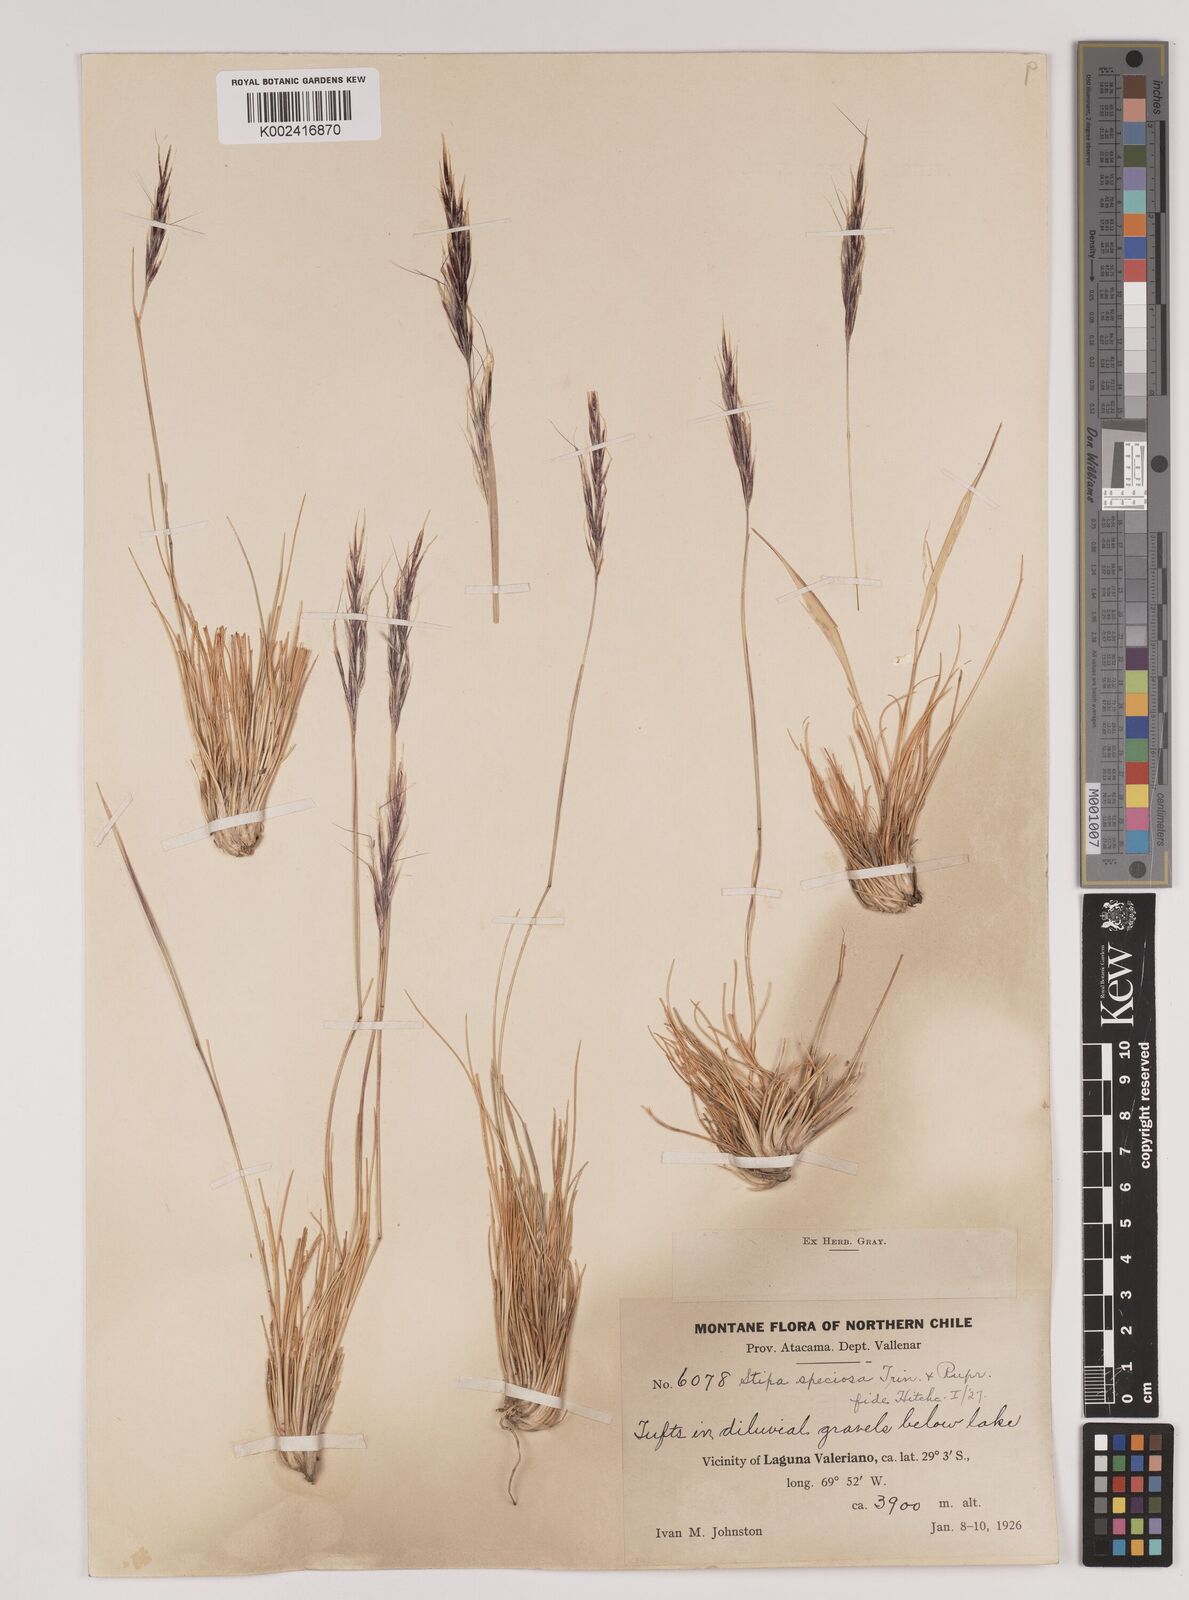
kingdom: Plantae
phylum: Tracheophyta
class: Liliopsida
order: Poales
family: Poaceae
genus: Pappostipa
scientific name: Pappostipa speciosa
